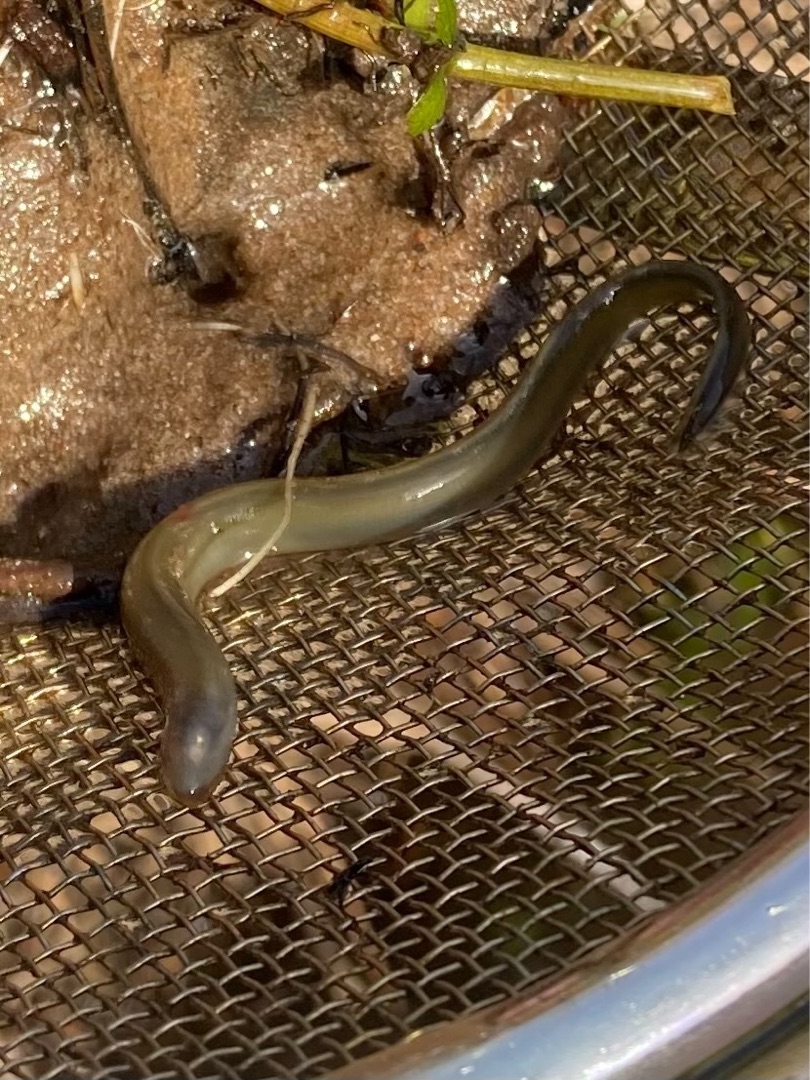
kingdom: Animalia
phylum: Chordata
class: Petromyzonti
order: Petromyzontiformes
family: Petromyzontidae
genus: Lampetra
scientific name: Lampetra planeri
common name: Bæklampret
